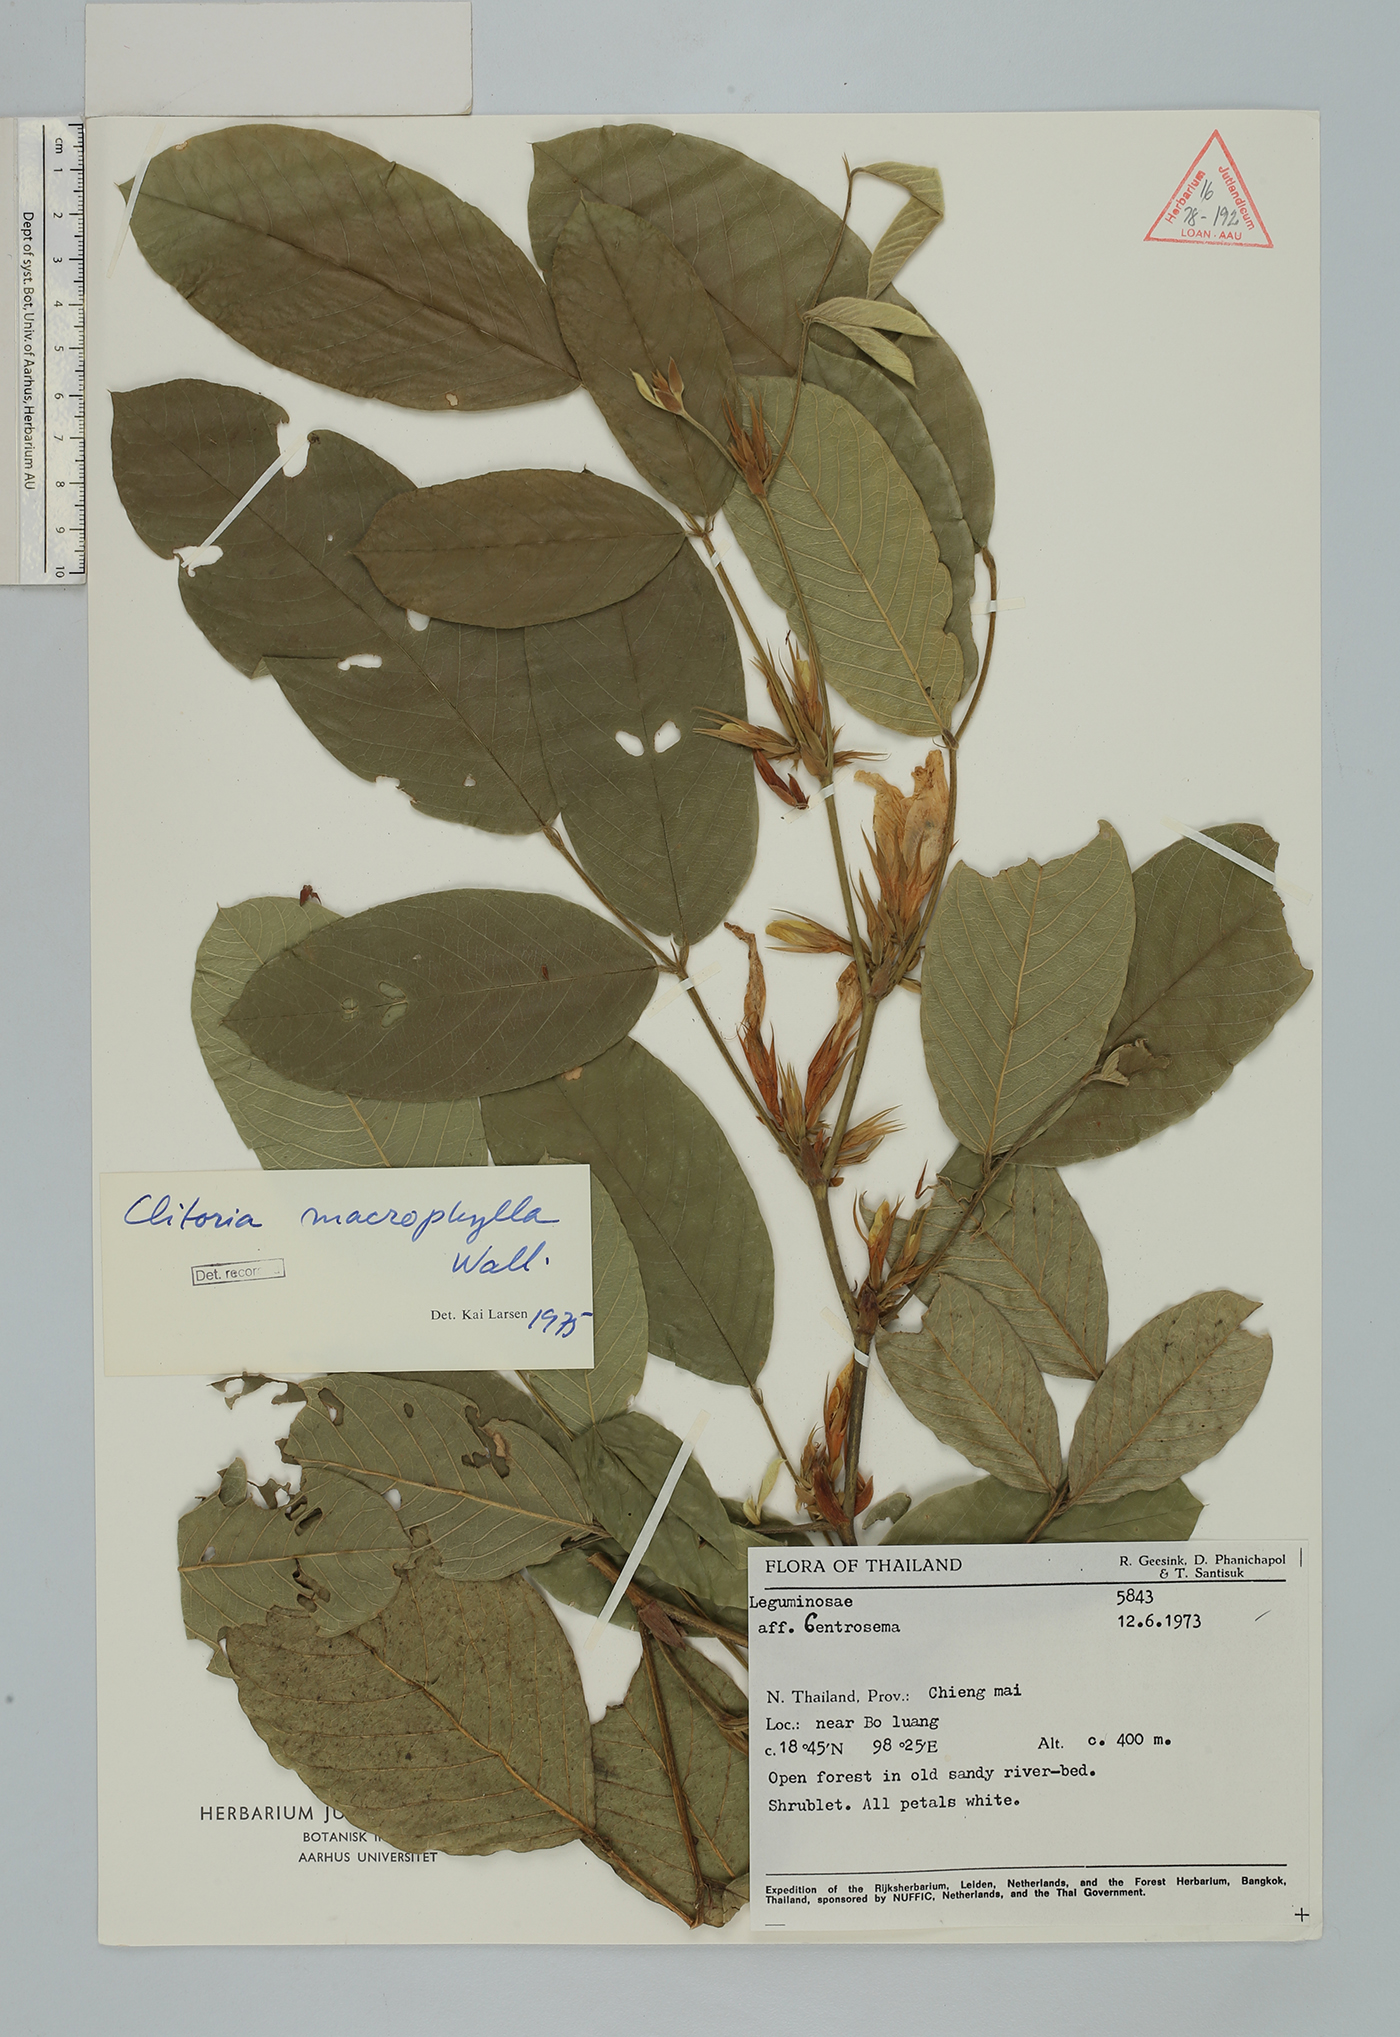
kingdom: Plantae
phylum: Tracheophyta
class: Magnoliopsida
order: Fabales
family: Fabaceae
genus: Clitoria
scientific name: Clitoria macrophylla
